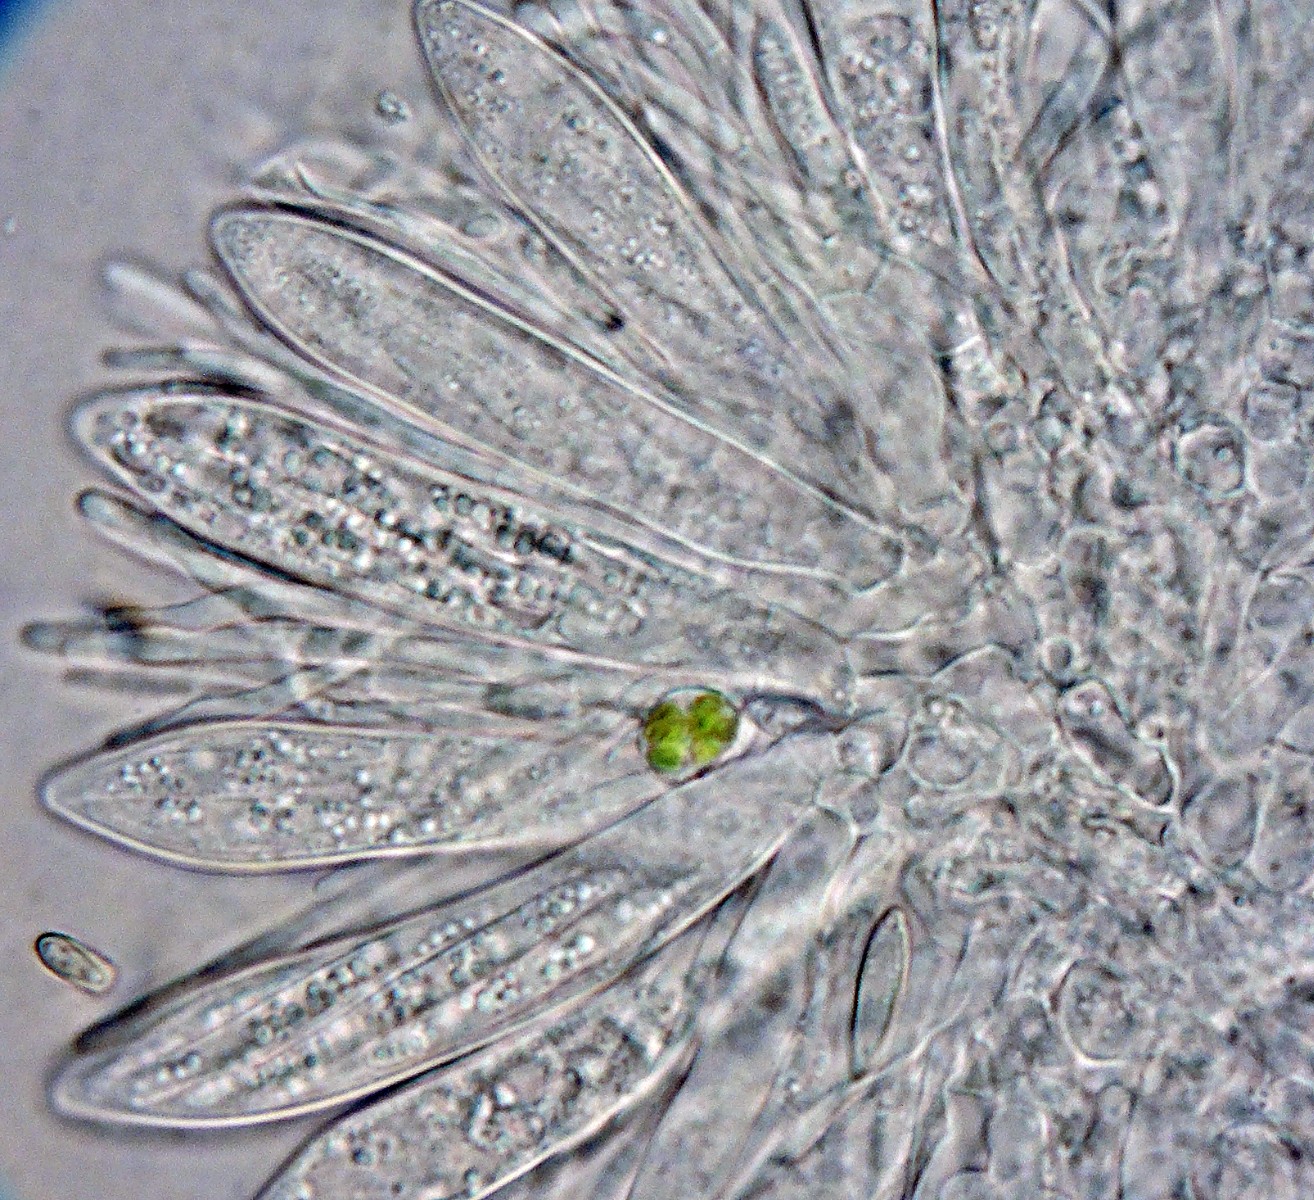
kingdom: Fungi
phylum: Ascomycota
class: Leotiomycetes
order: Helotiales
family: Helotiaceae
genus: Pseudohelotium
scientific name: Pseudohelotium sordidulum
